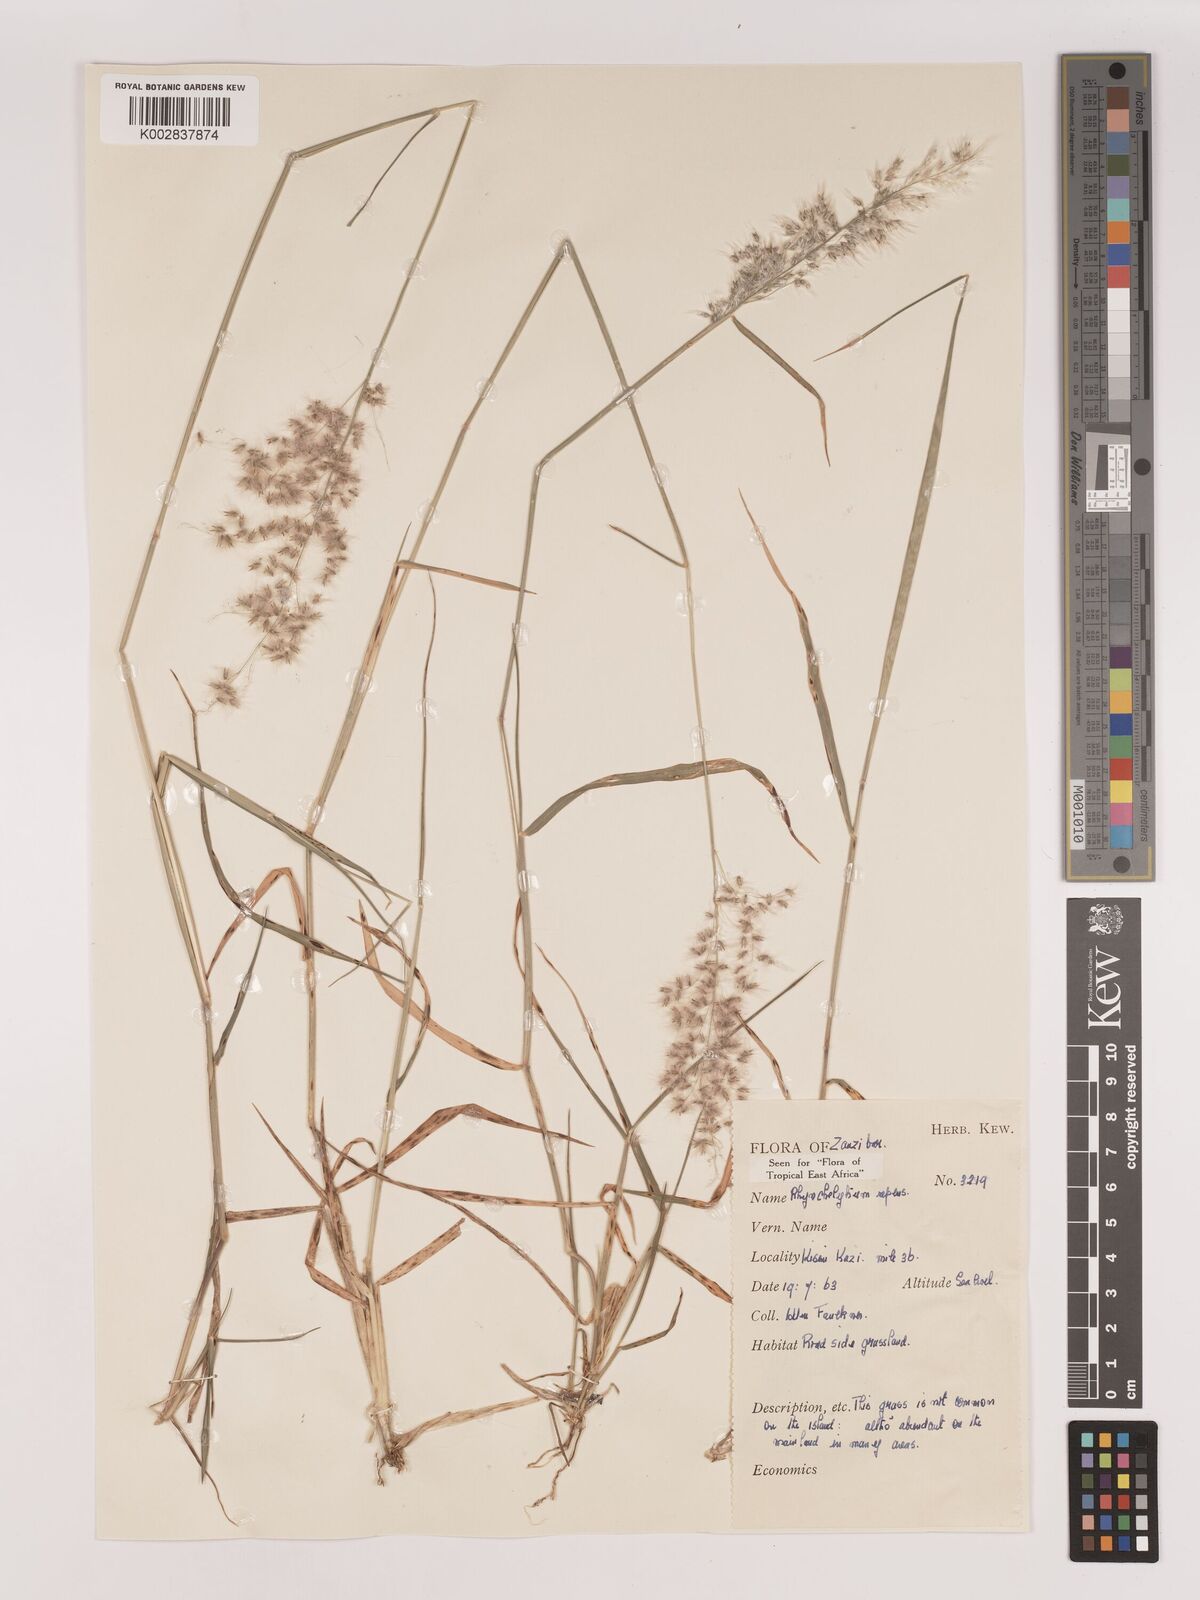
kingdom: Plantae
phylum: Tracheophyta
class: Liliopsida
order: Poales
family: Poaceae
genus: Melinis
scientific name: Melinis repens
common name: Rose natal grass
